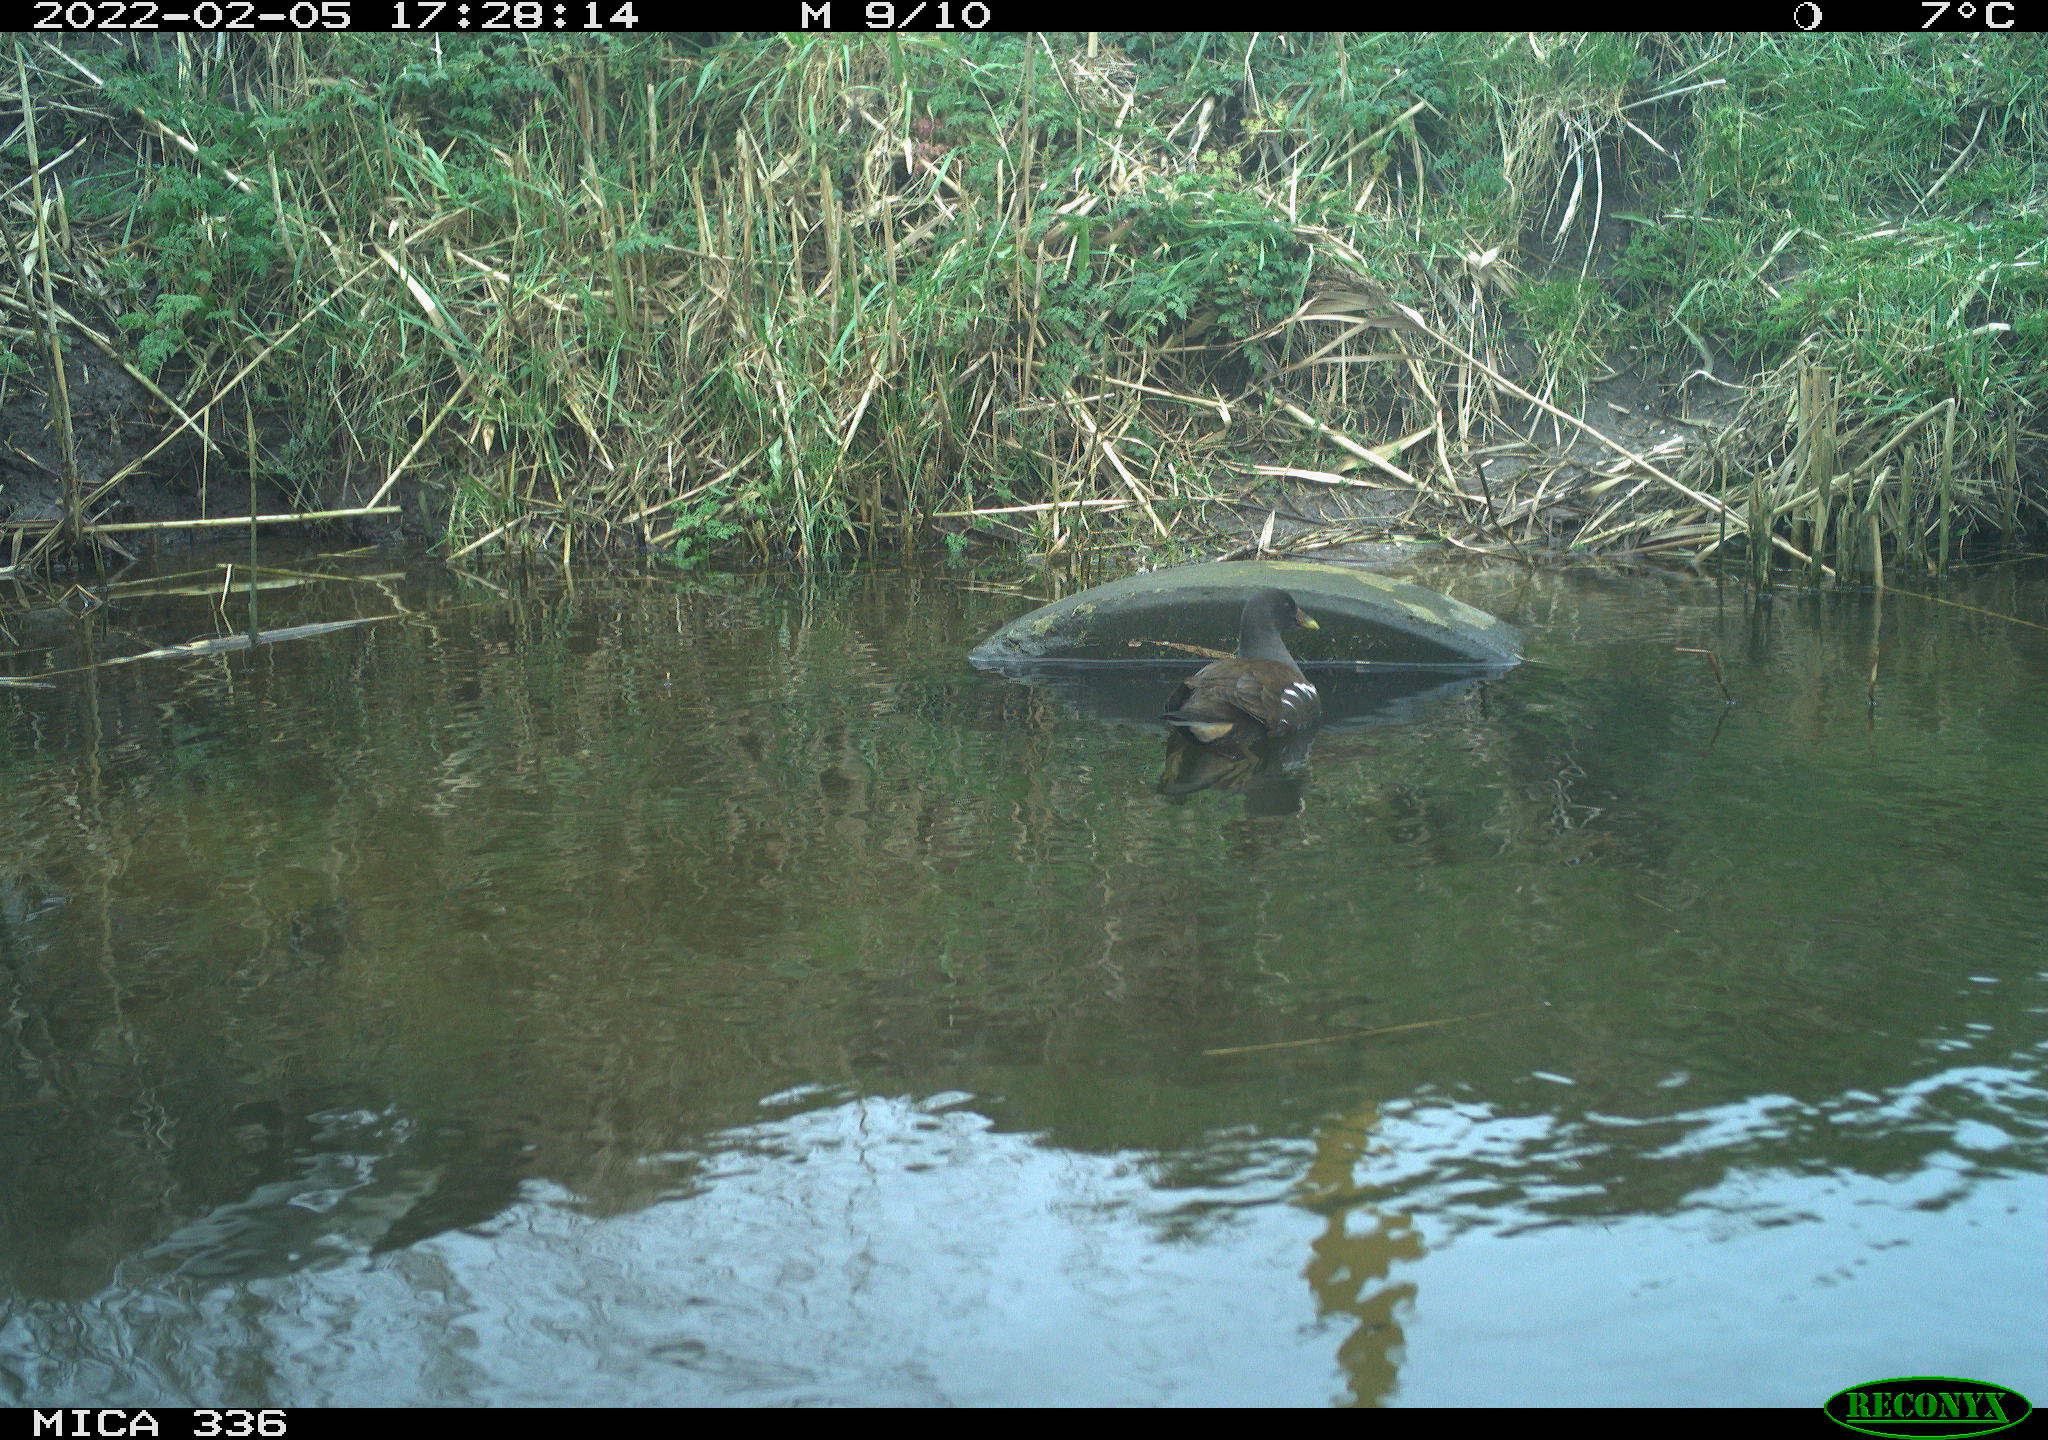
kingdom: Animalia
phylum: Chordata
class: Aves
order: Gruiformes
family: Rallidae
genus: Gallinula
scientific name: Gallinula chloropus
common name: Common moorhen
